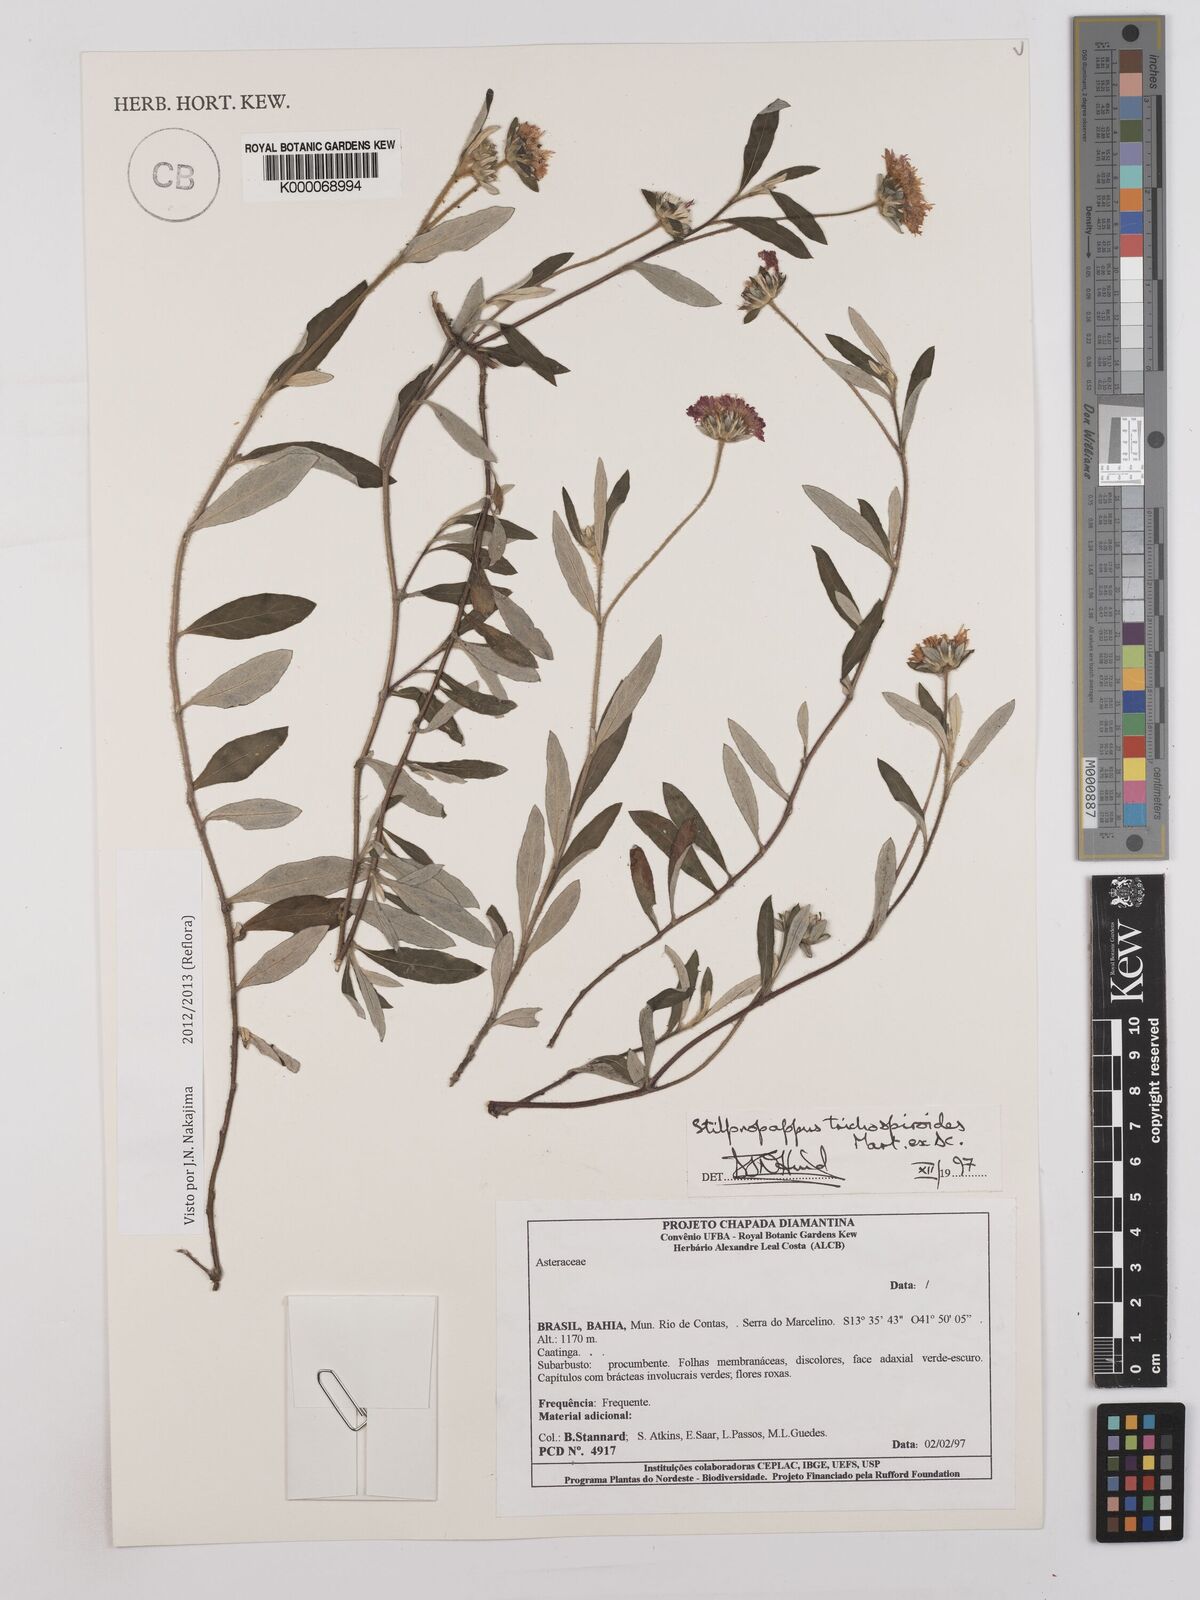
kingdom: Plantae
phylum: Tracheophyta
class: Magnoliopsida
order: Asterales
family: Asteraceae
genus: Stilpnopappus
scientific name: Stilpnopappus
